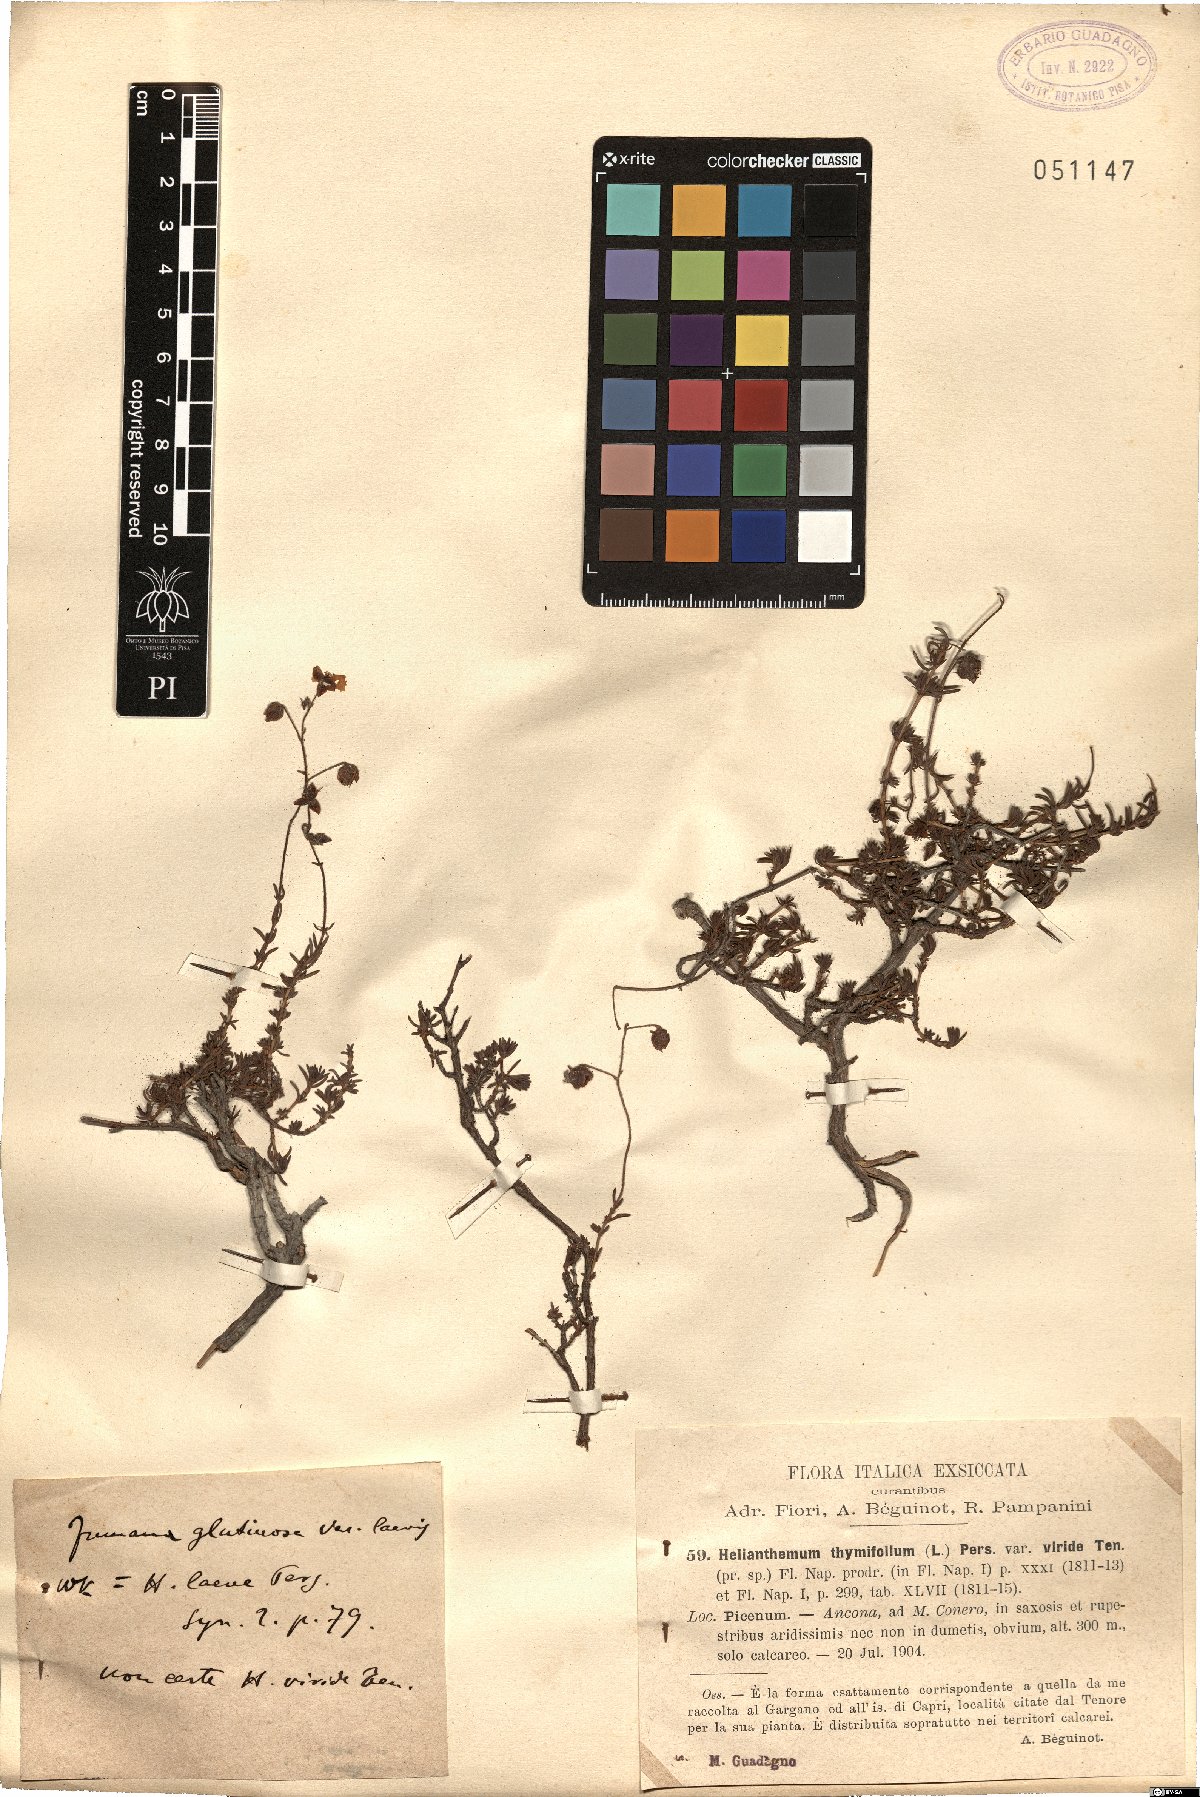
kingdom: Plantae
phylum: Tracheophyta
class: Magnoliopsida
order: Malvales
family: Cistaceae
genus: Fumana
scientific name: Fumana thymifolia
